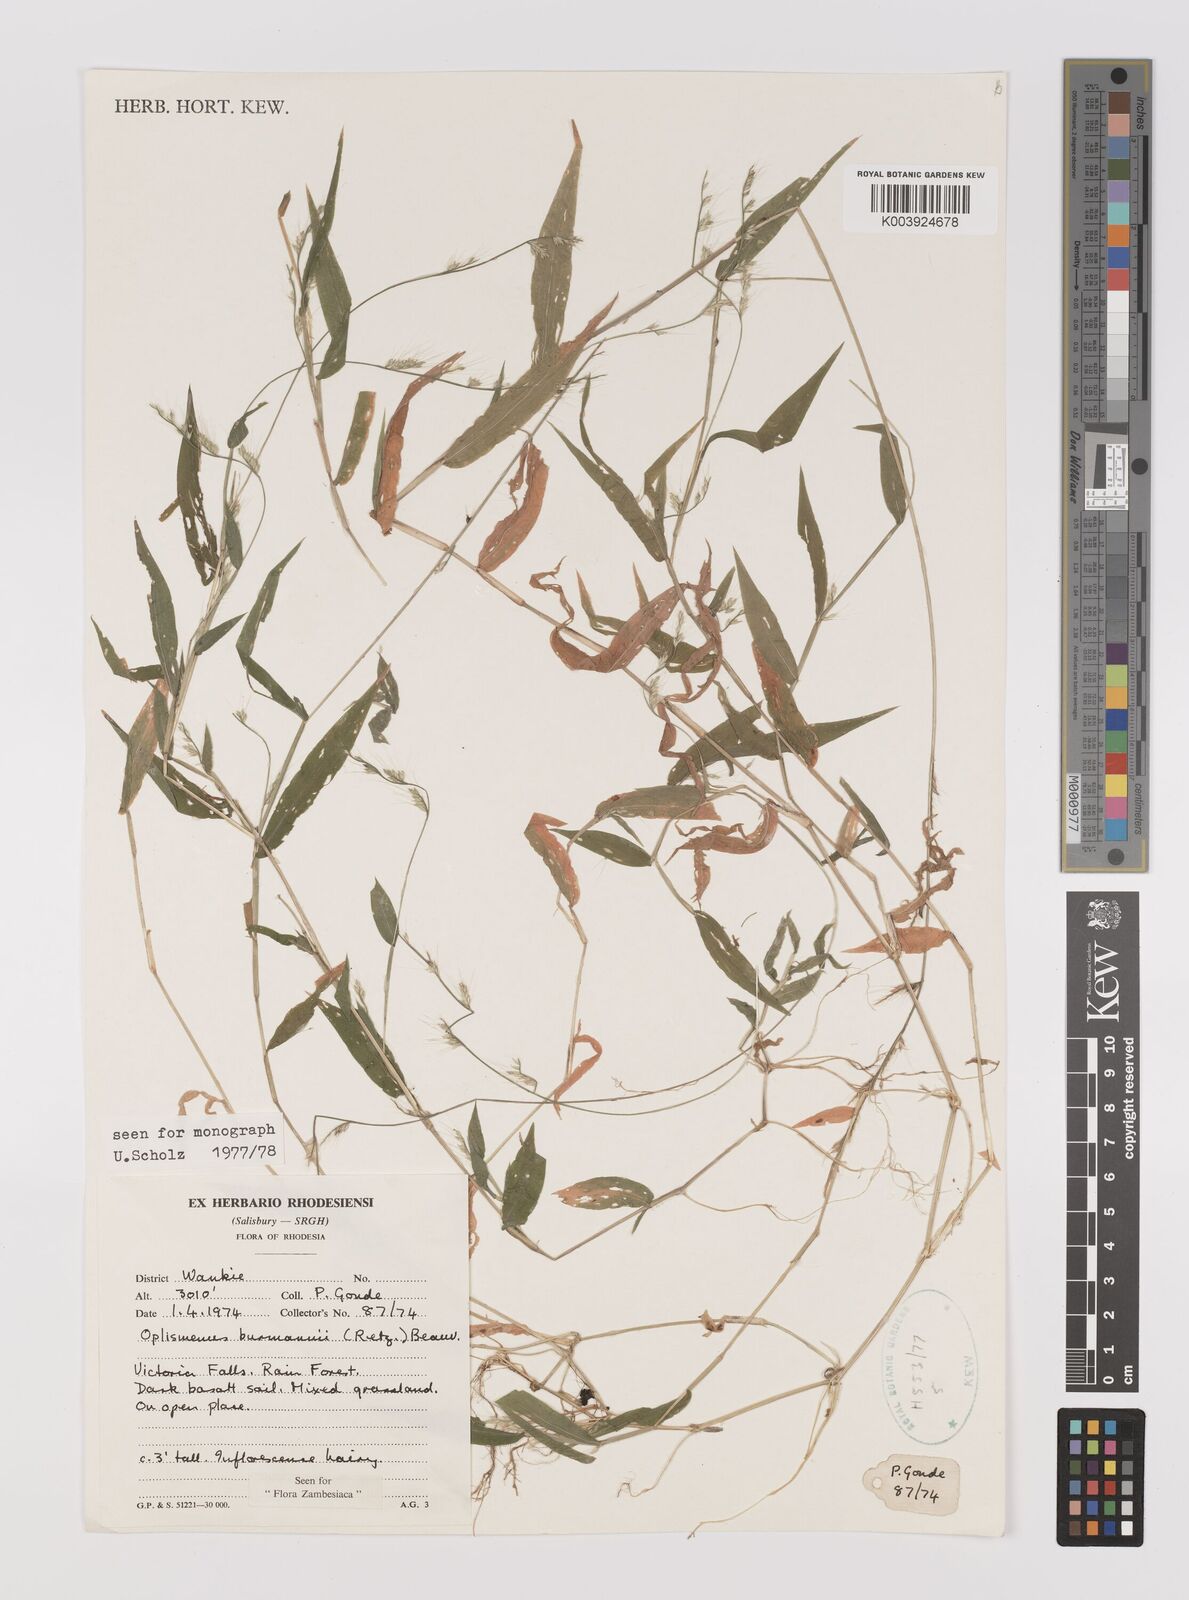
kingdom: Plantae
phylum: Tracheophyta
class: Liliopsida
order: Poales
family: Poaceae
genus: Oplismenus
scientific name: Oplismenus burmanni
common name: Burmann's basketgrass
